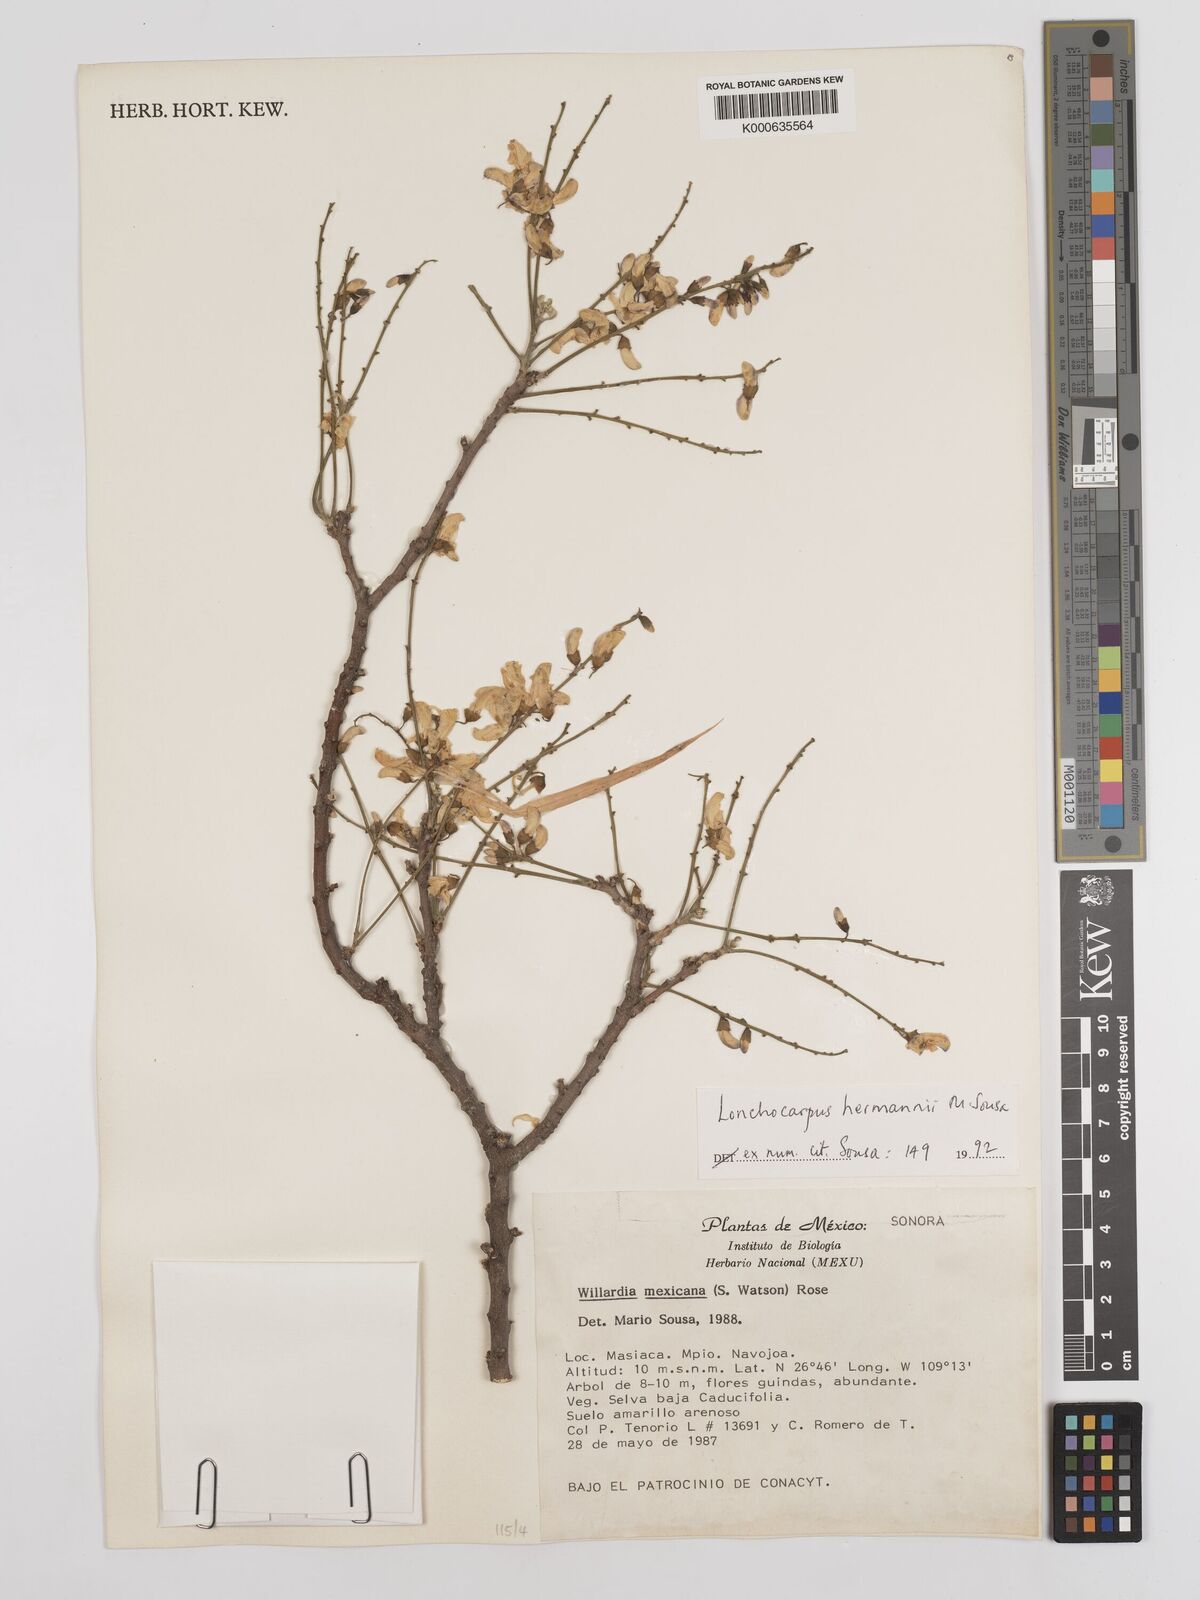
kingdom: Plantae
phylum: Tracheophyta
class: Magnoliopsida
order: Fabales
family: Fabaceae
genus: Lonchocarpus
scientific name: Lonchocarpus hermannii
